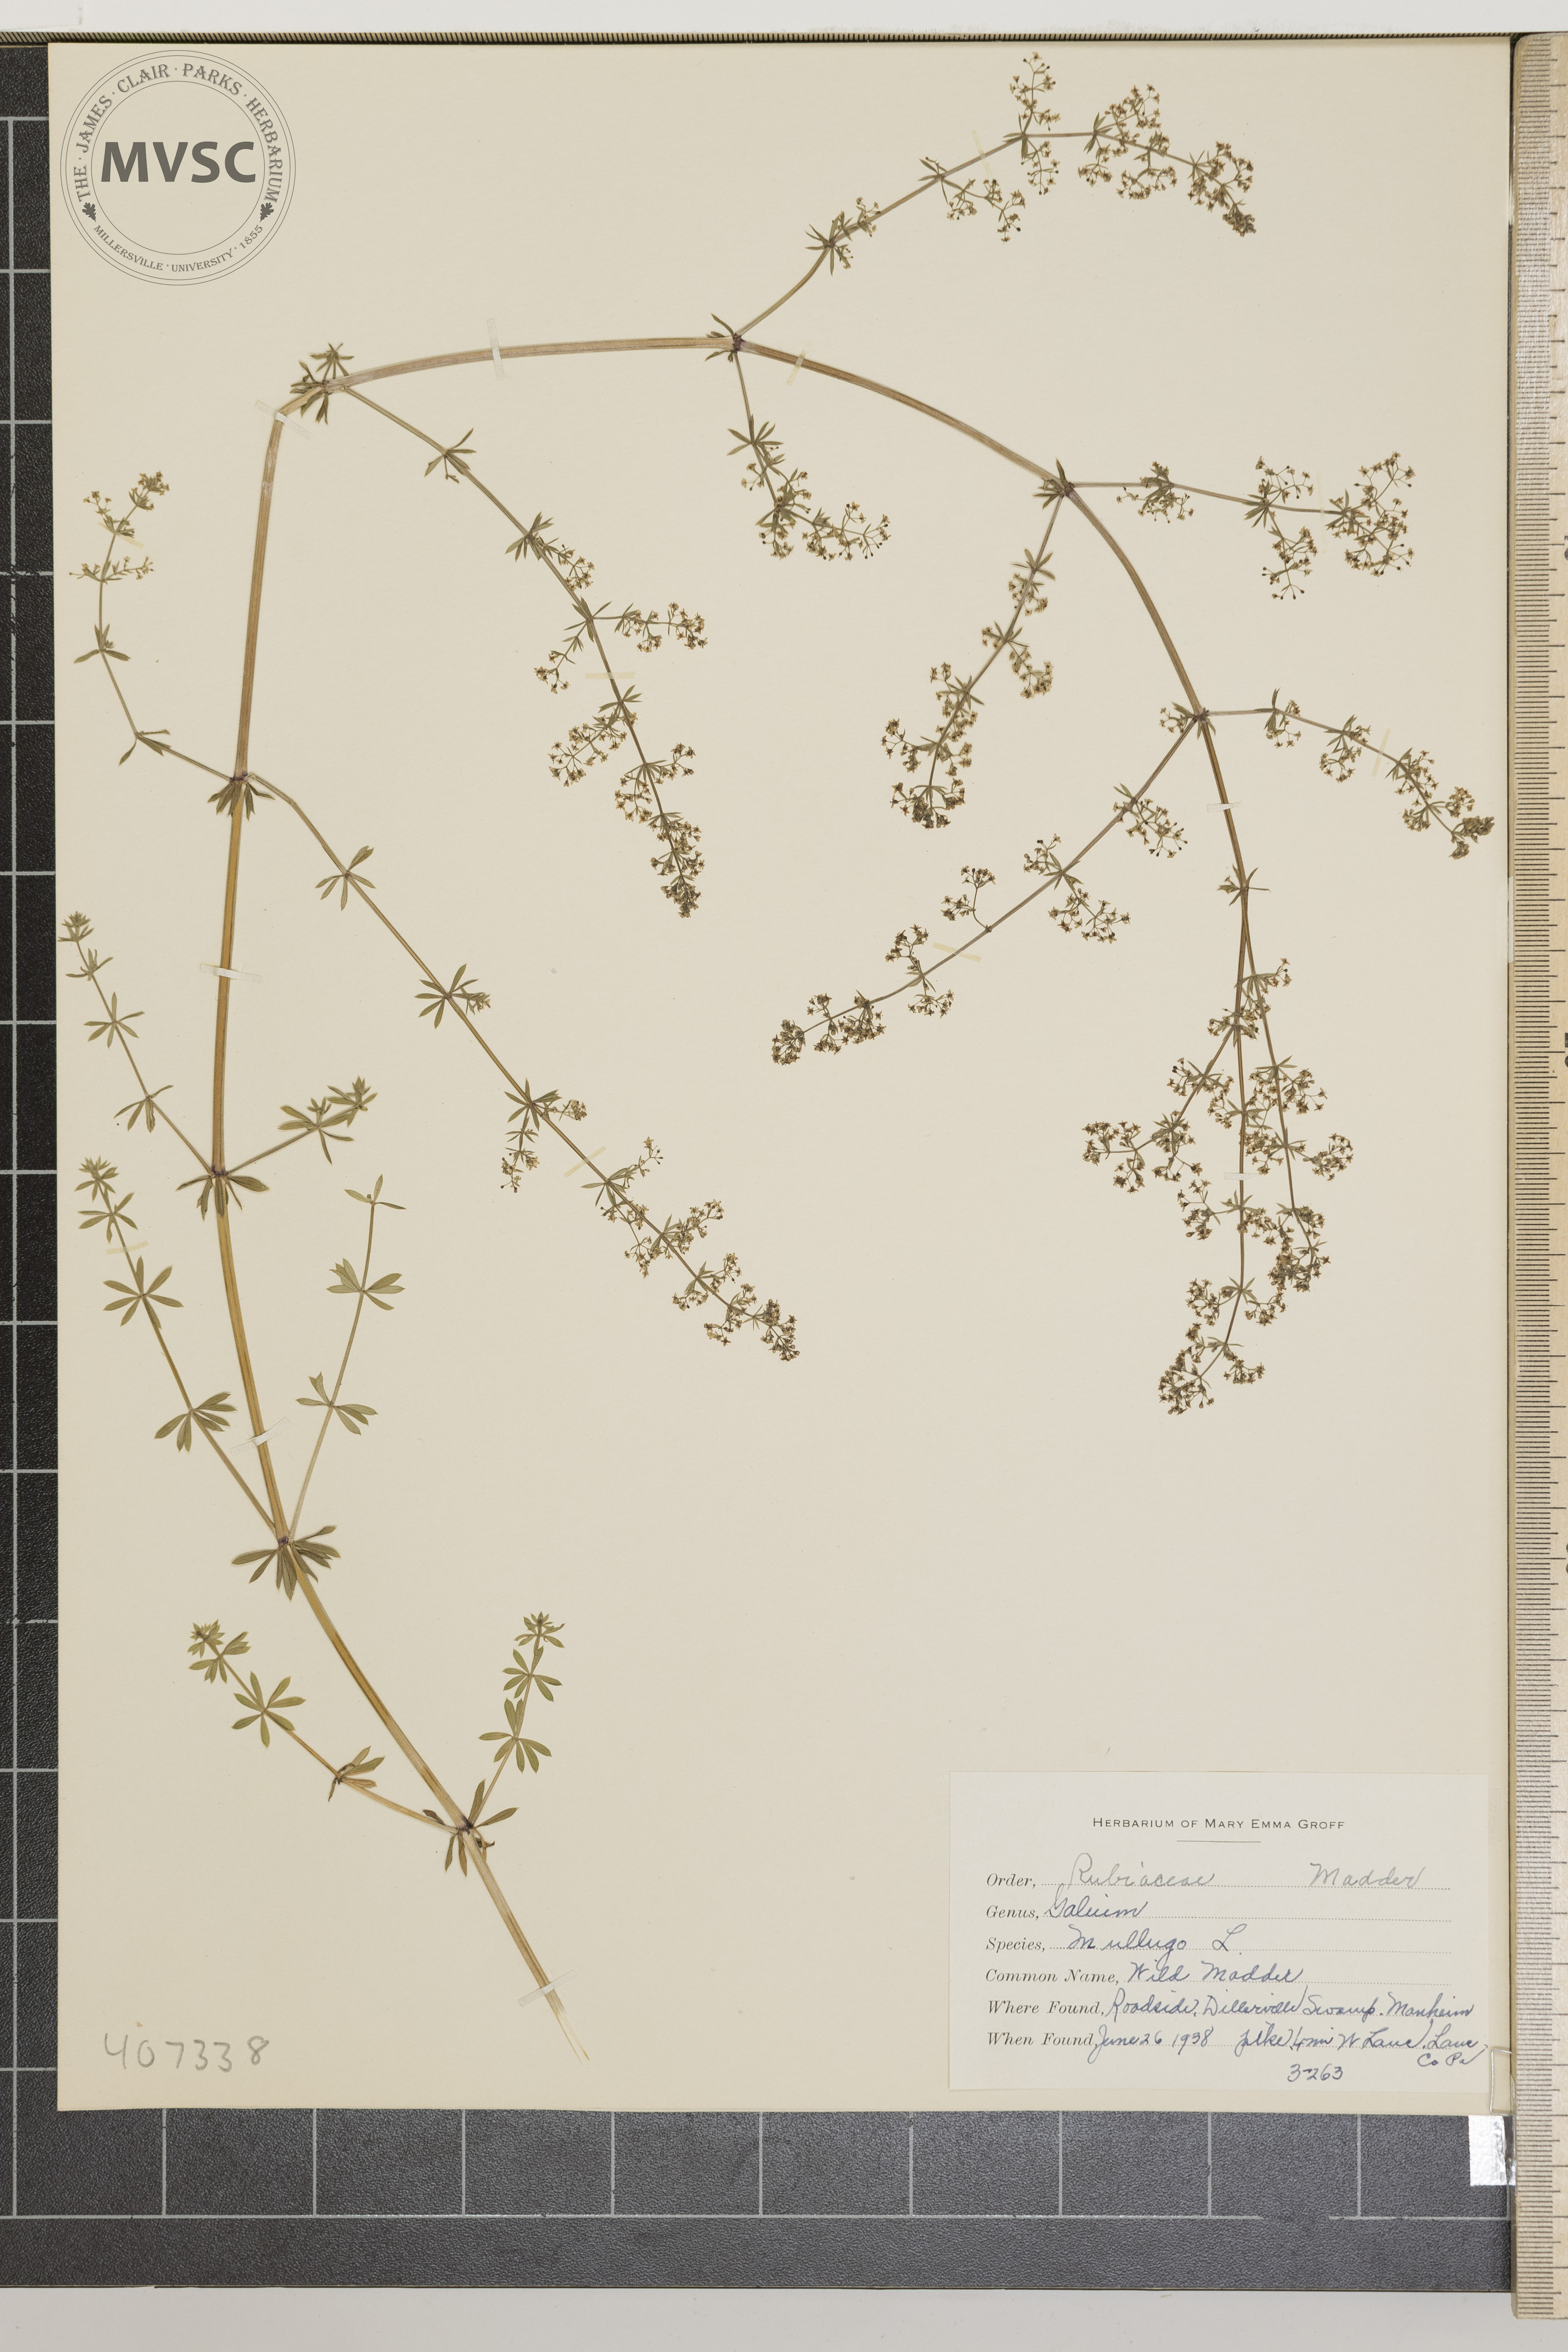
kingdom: Plantae
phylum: Tracheophyta
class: Magnoliopsida
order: Gentianales
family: Rubiaceae
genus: Galium
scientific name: Galium mollugo
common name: Wild Madder
